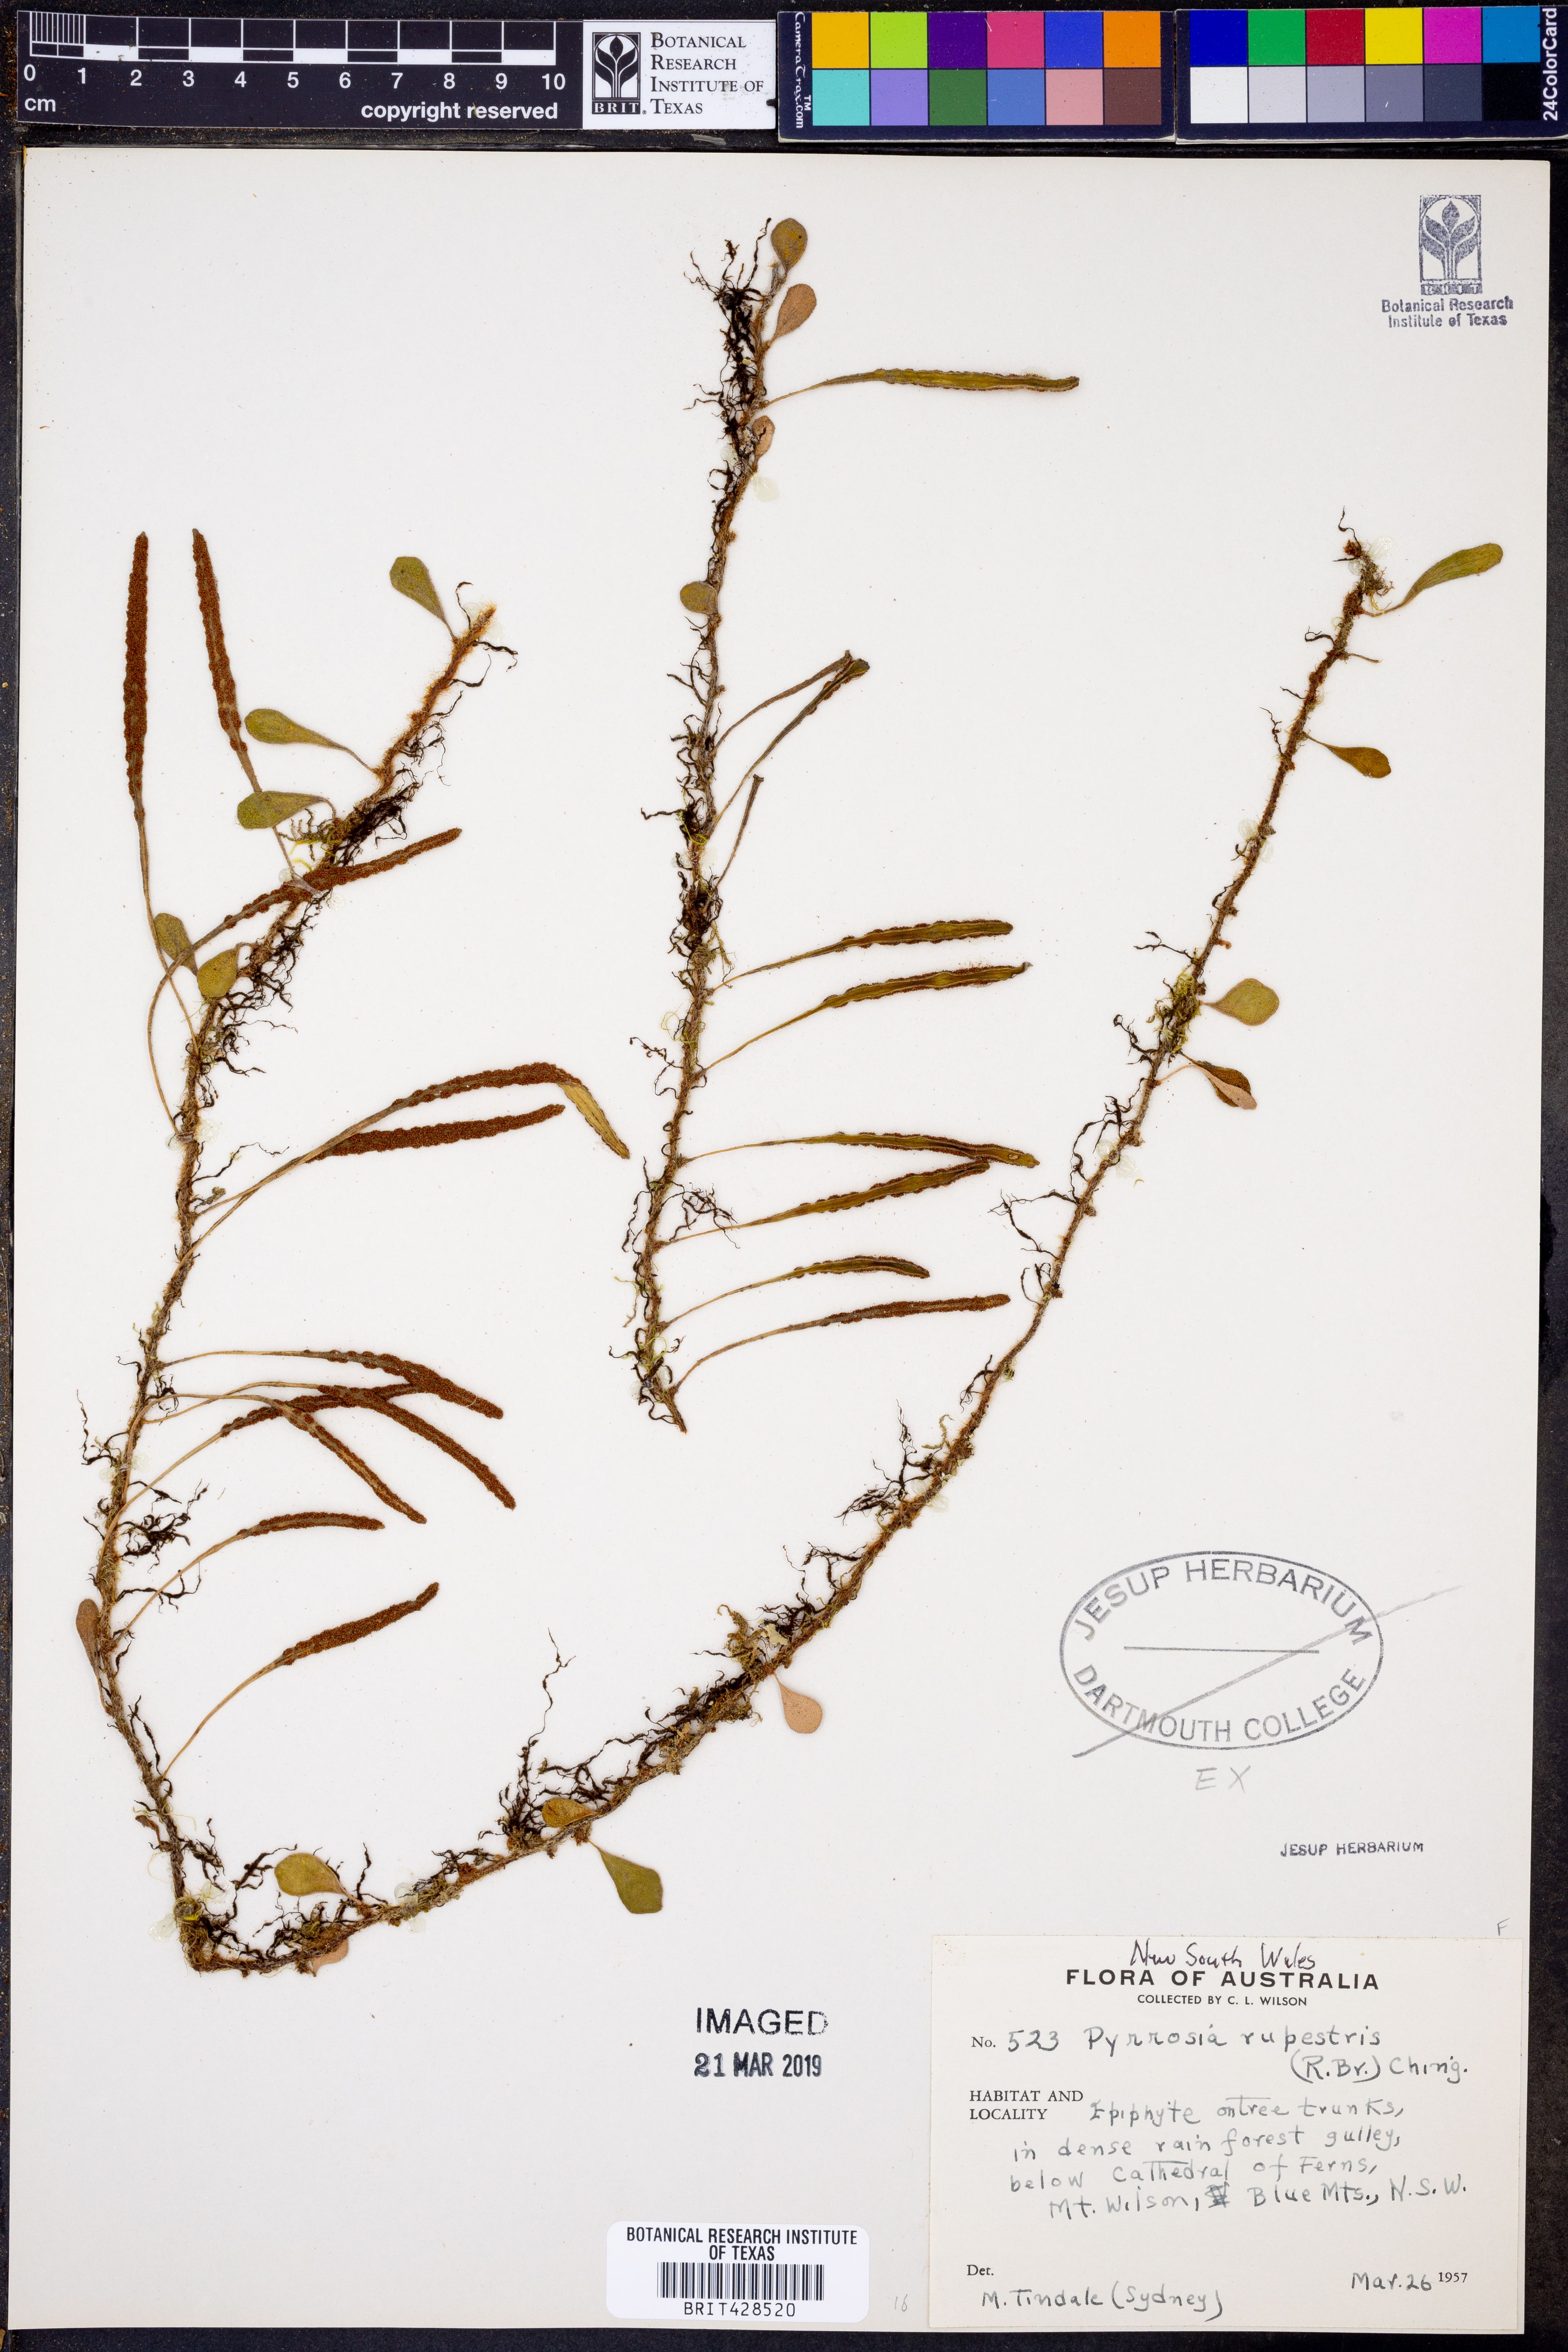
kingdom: Plantae
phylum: Tracheophyta
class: Polypodiopsida
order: Polypodiales
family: Polypodiaceae
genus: Pyrrosia
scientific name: Pyrrosia rupestris
